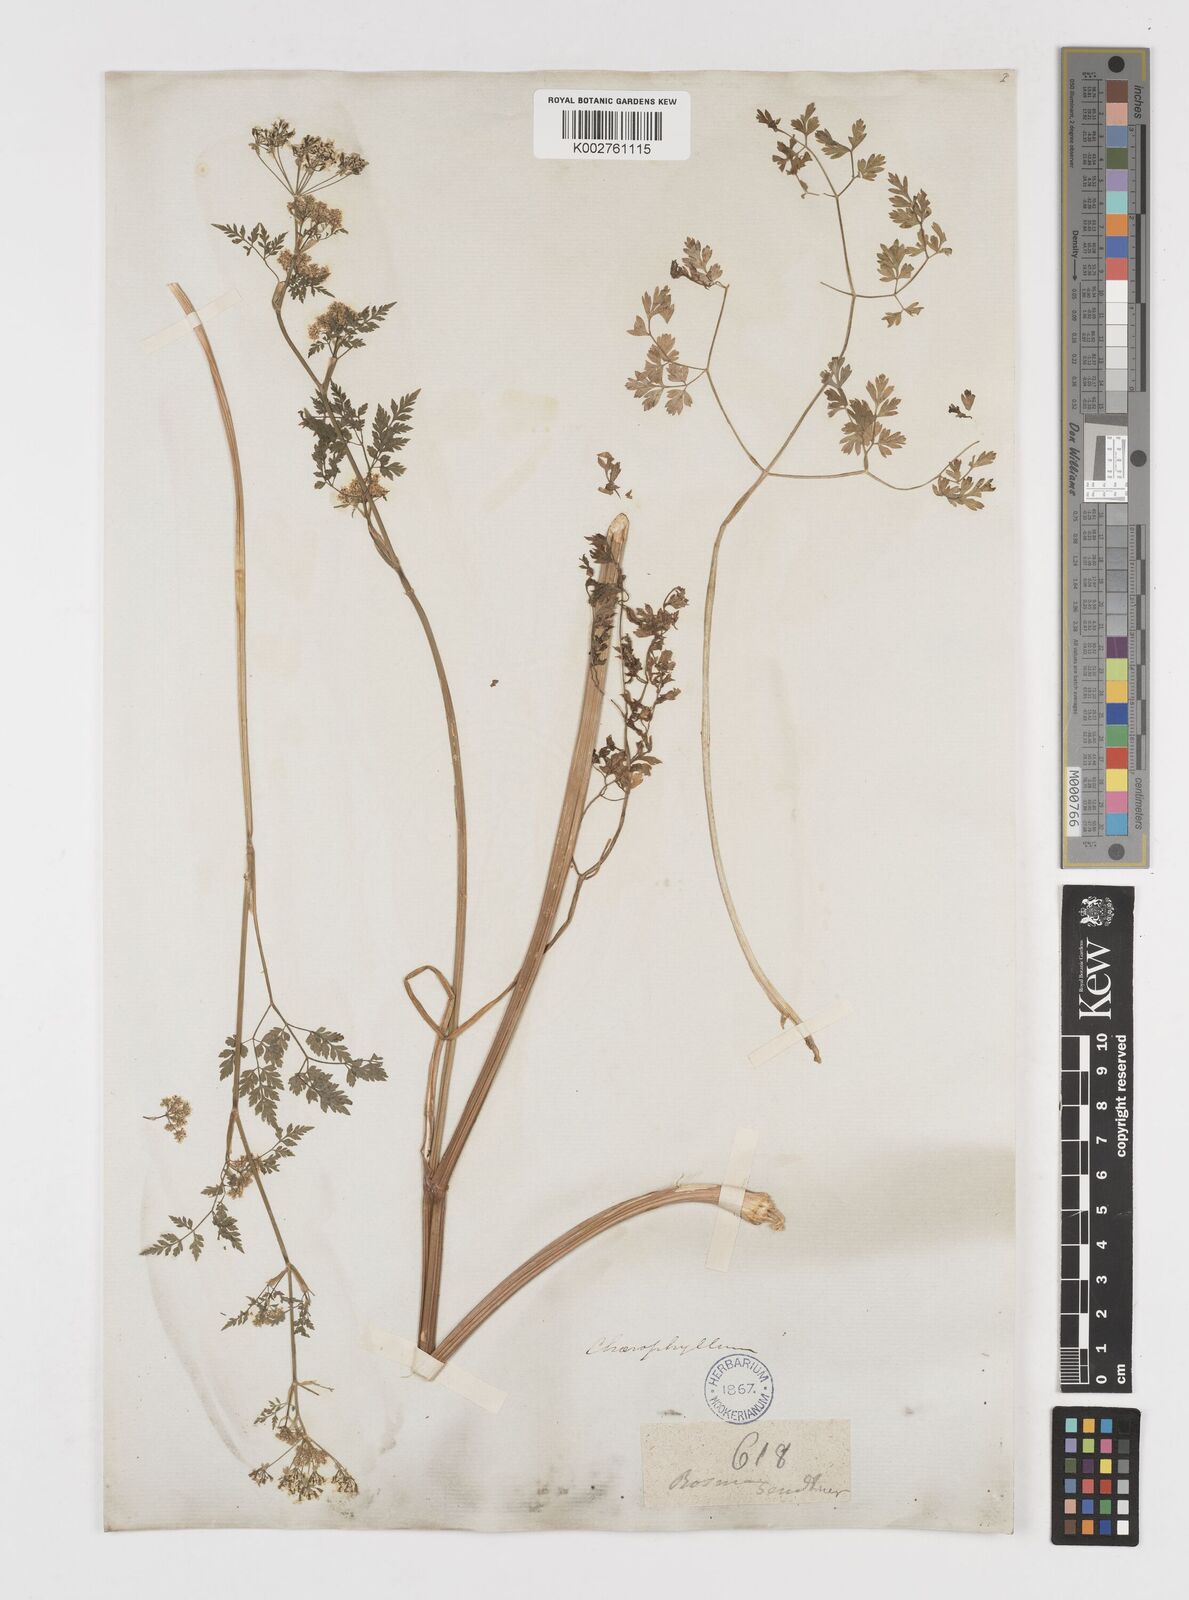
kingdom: Plantae
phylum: Tracheophyta
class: Magnoliopsida
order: Apiales
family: Apiaceae
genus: Chaerophyllum
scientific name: Chaerophyllum coloratum
